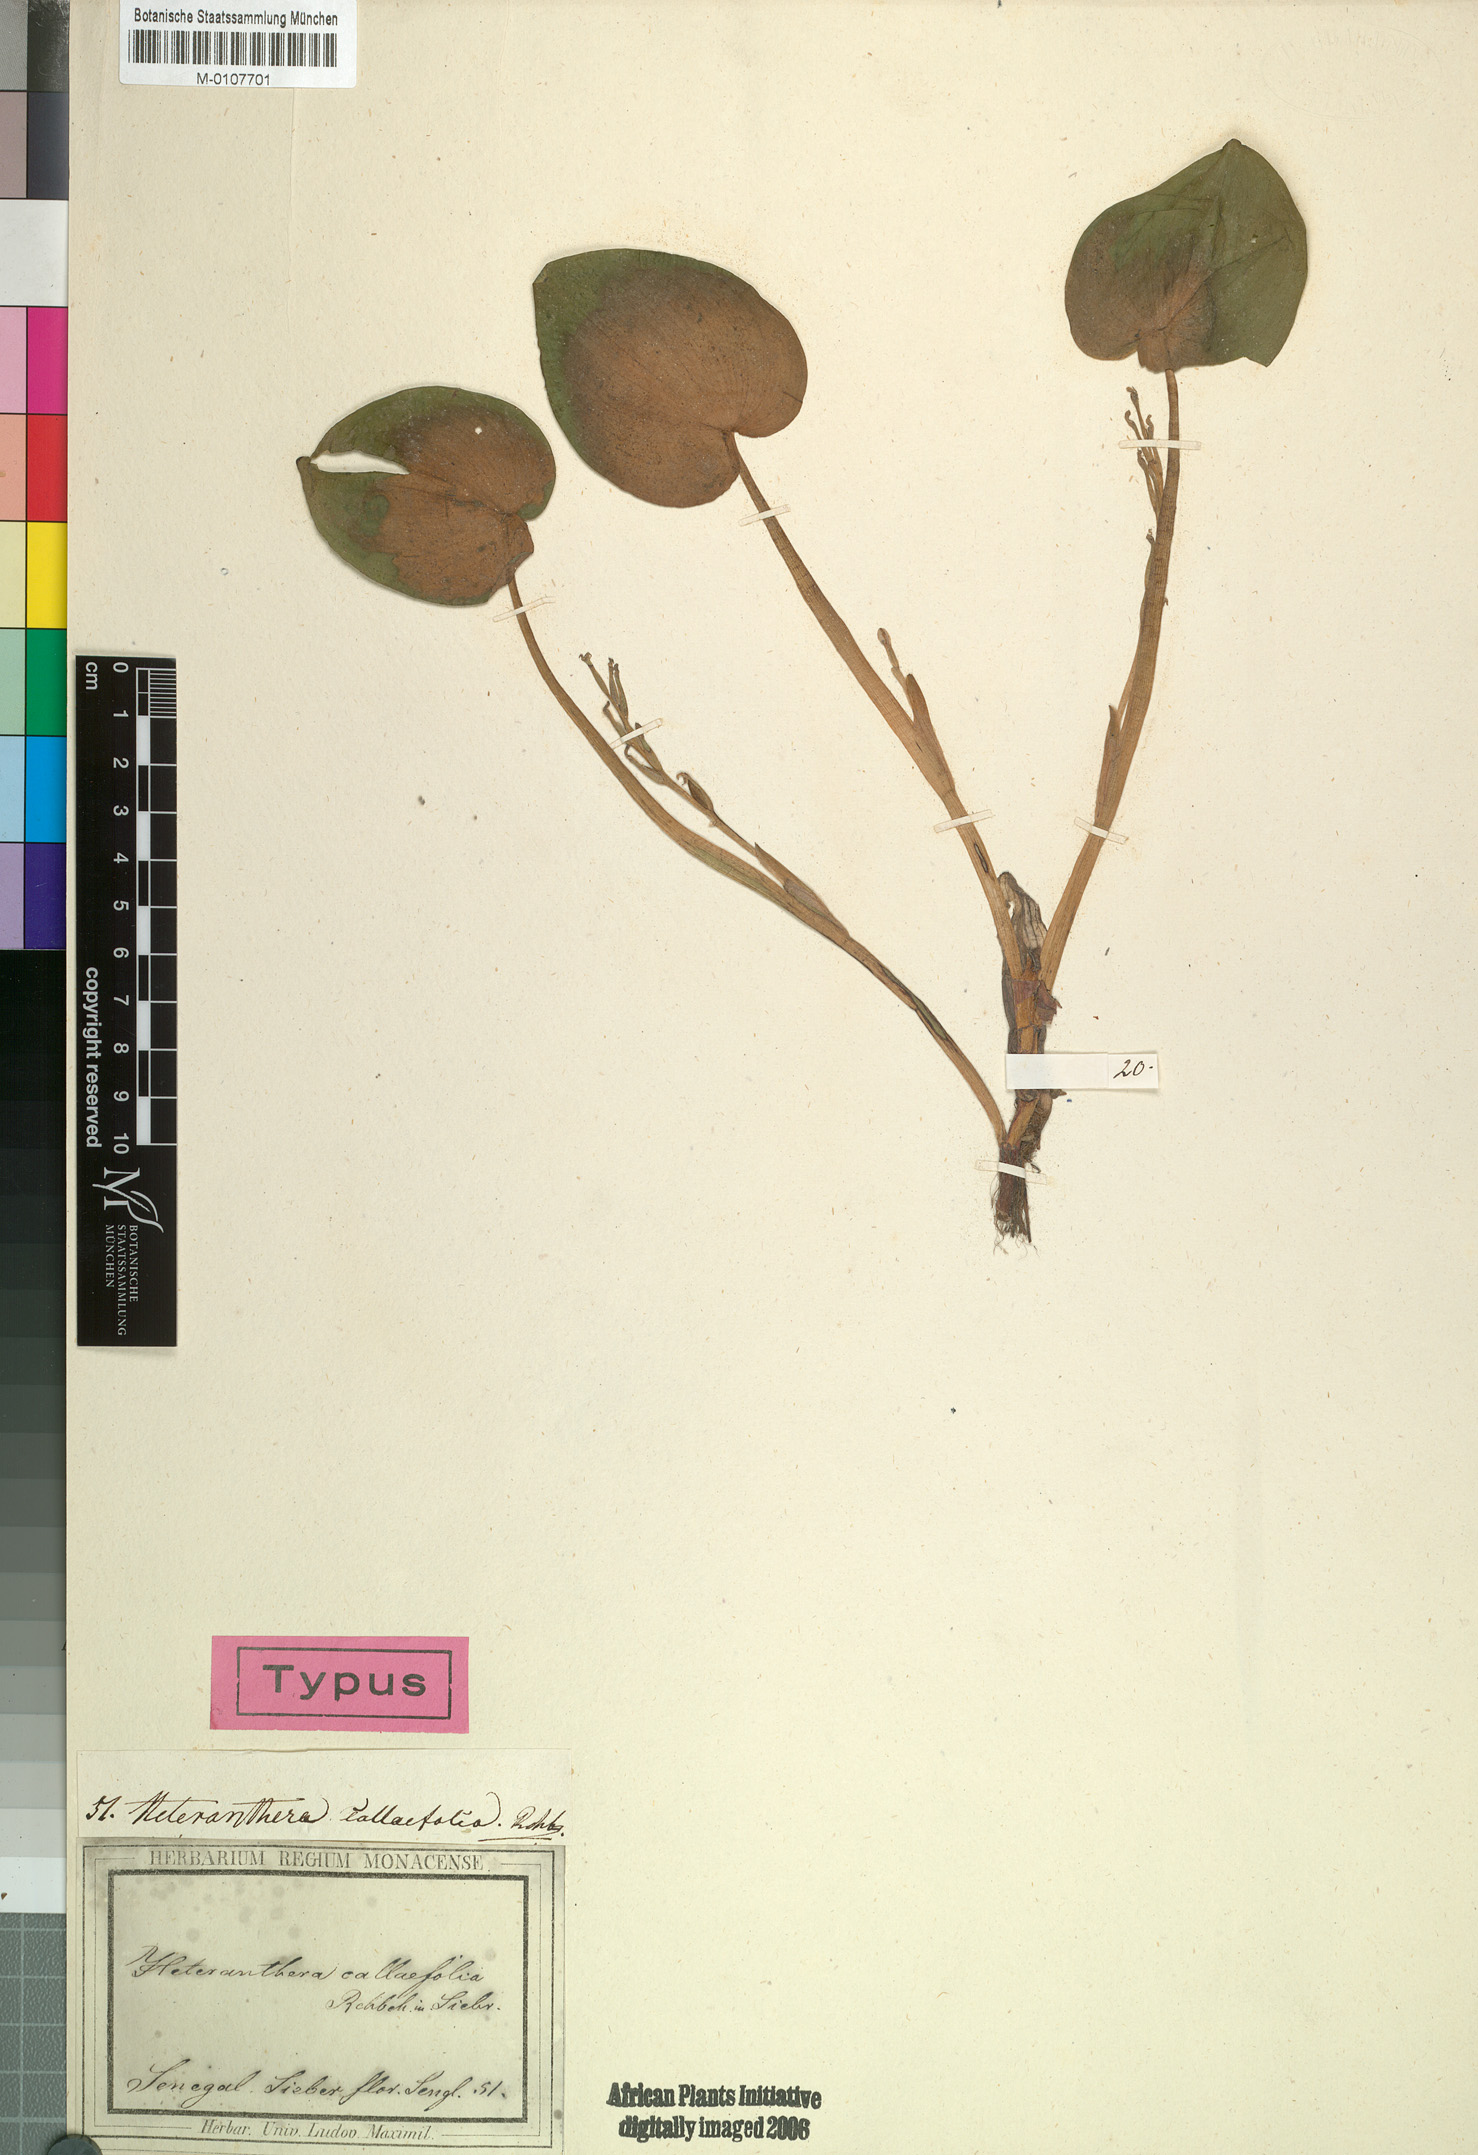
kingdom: Plantae
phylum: Tracheophyta
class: Liliopsida
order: Commelinales
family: Pontederiaceae
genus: Heteranthera
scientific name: Heteranthera callifolia
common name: Mud plantain
